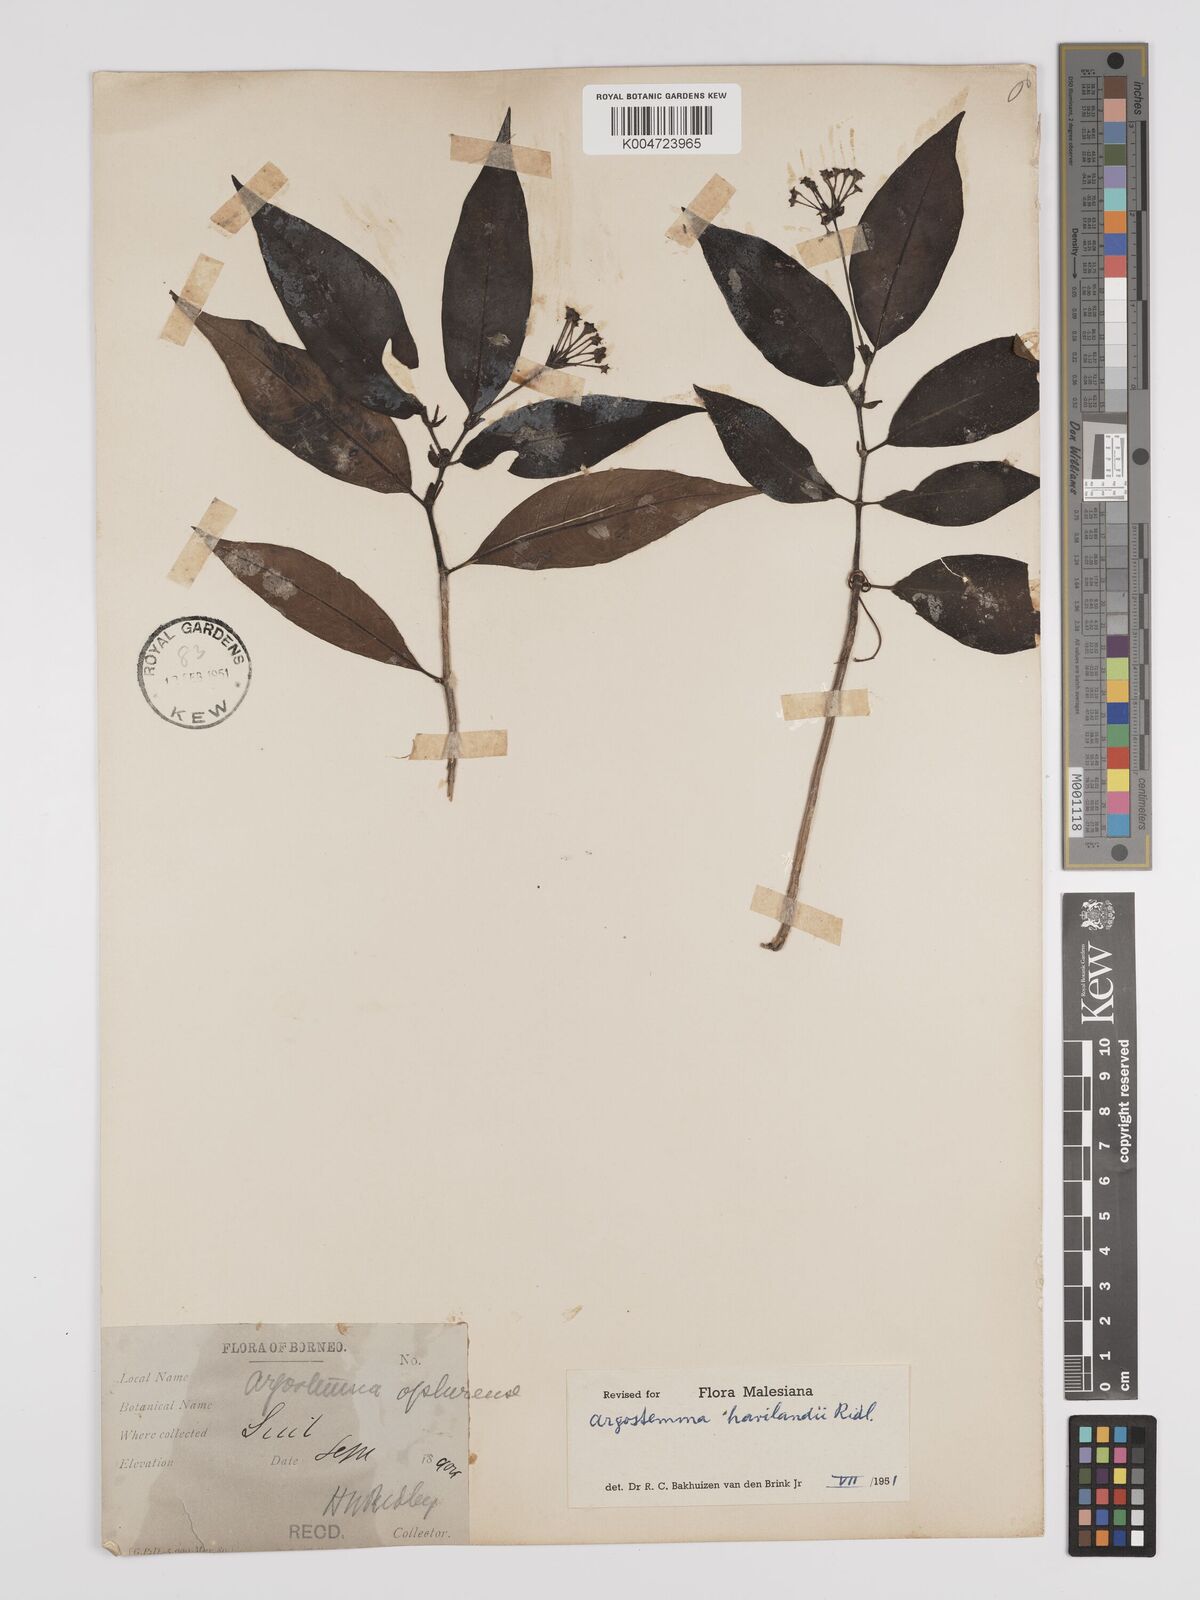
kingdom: Plantae
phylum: Tracheophyta
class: Magnoliopsida
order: Gentianales
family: Rubiaceae
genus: Argostemma
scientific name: Argostemma havilandii
